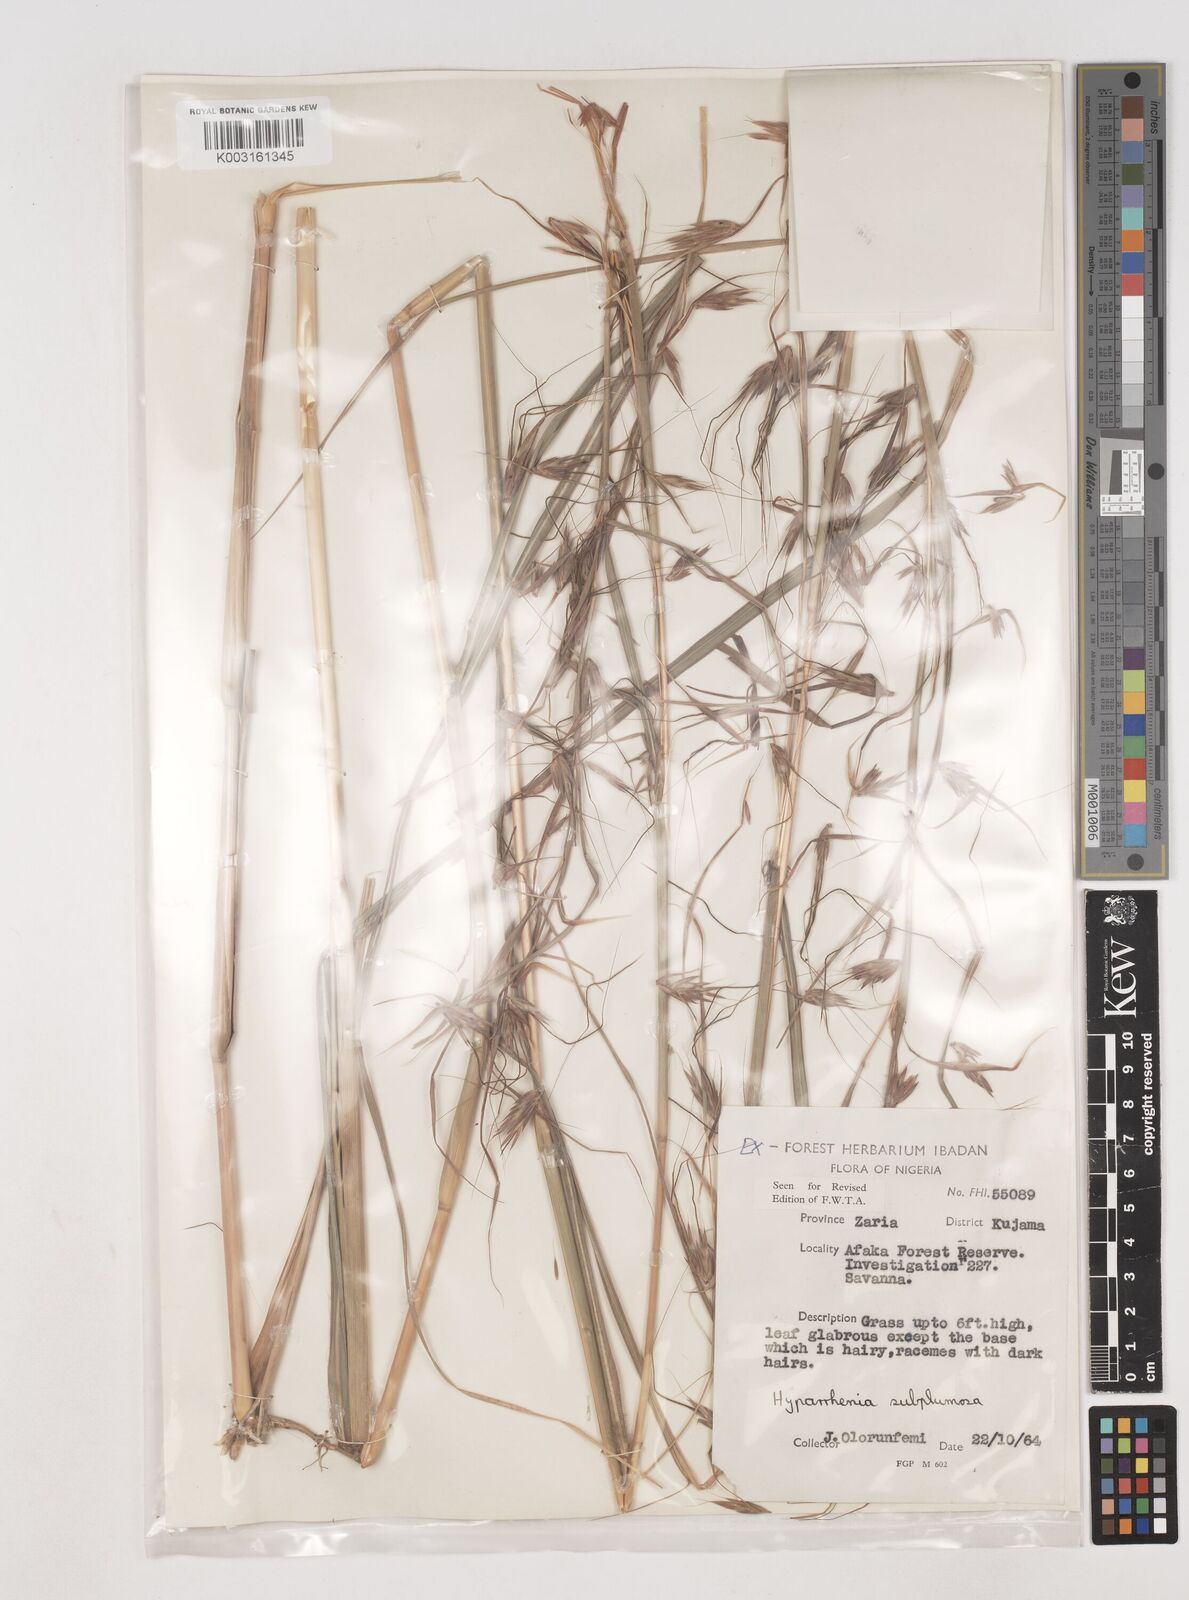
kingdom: Plantae
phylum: Tracheophyta
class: Liliopsida
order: Poales
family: Poaceae
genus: Hyparrhenia
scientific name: Hyparrhenia subplumosa
